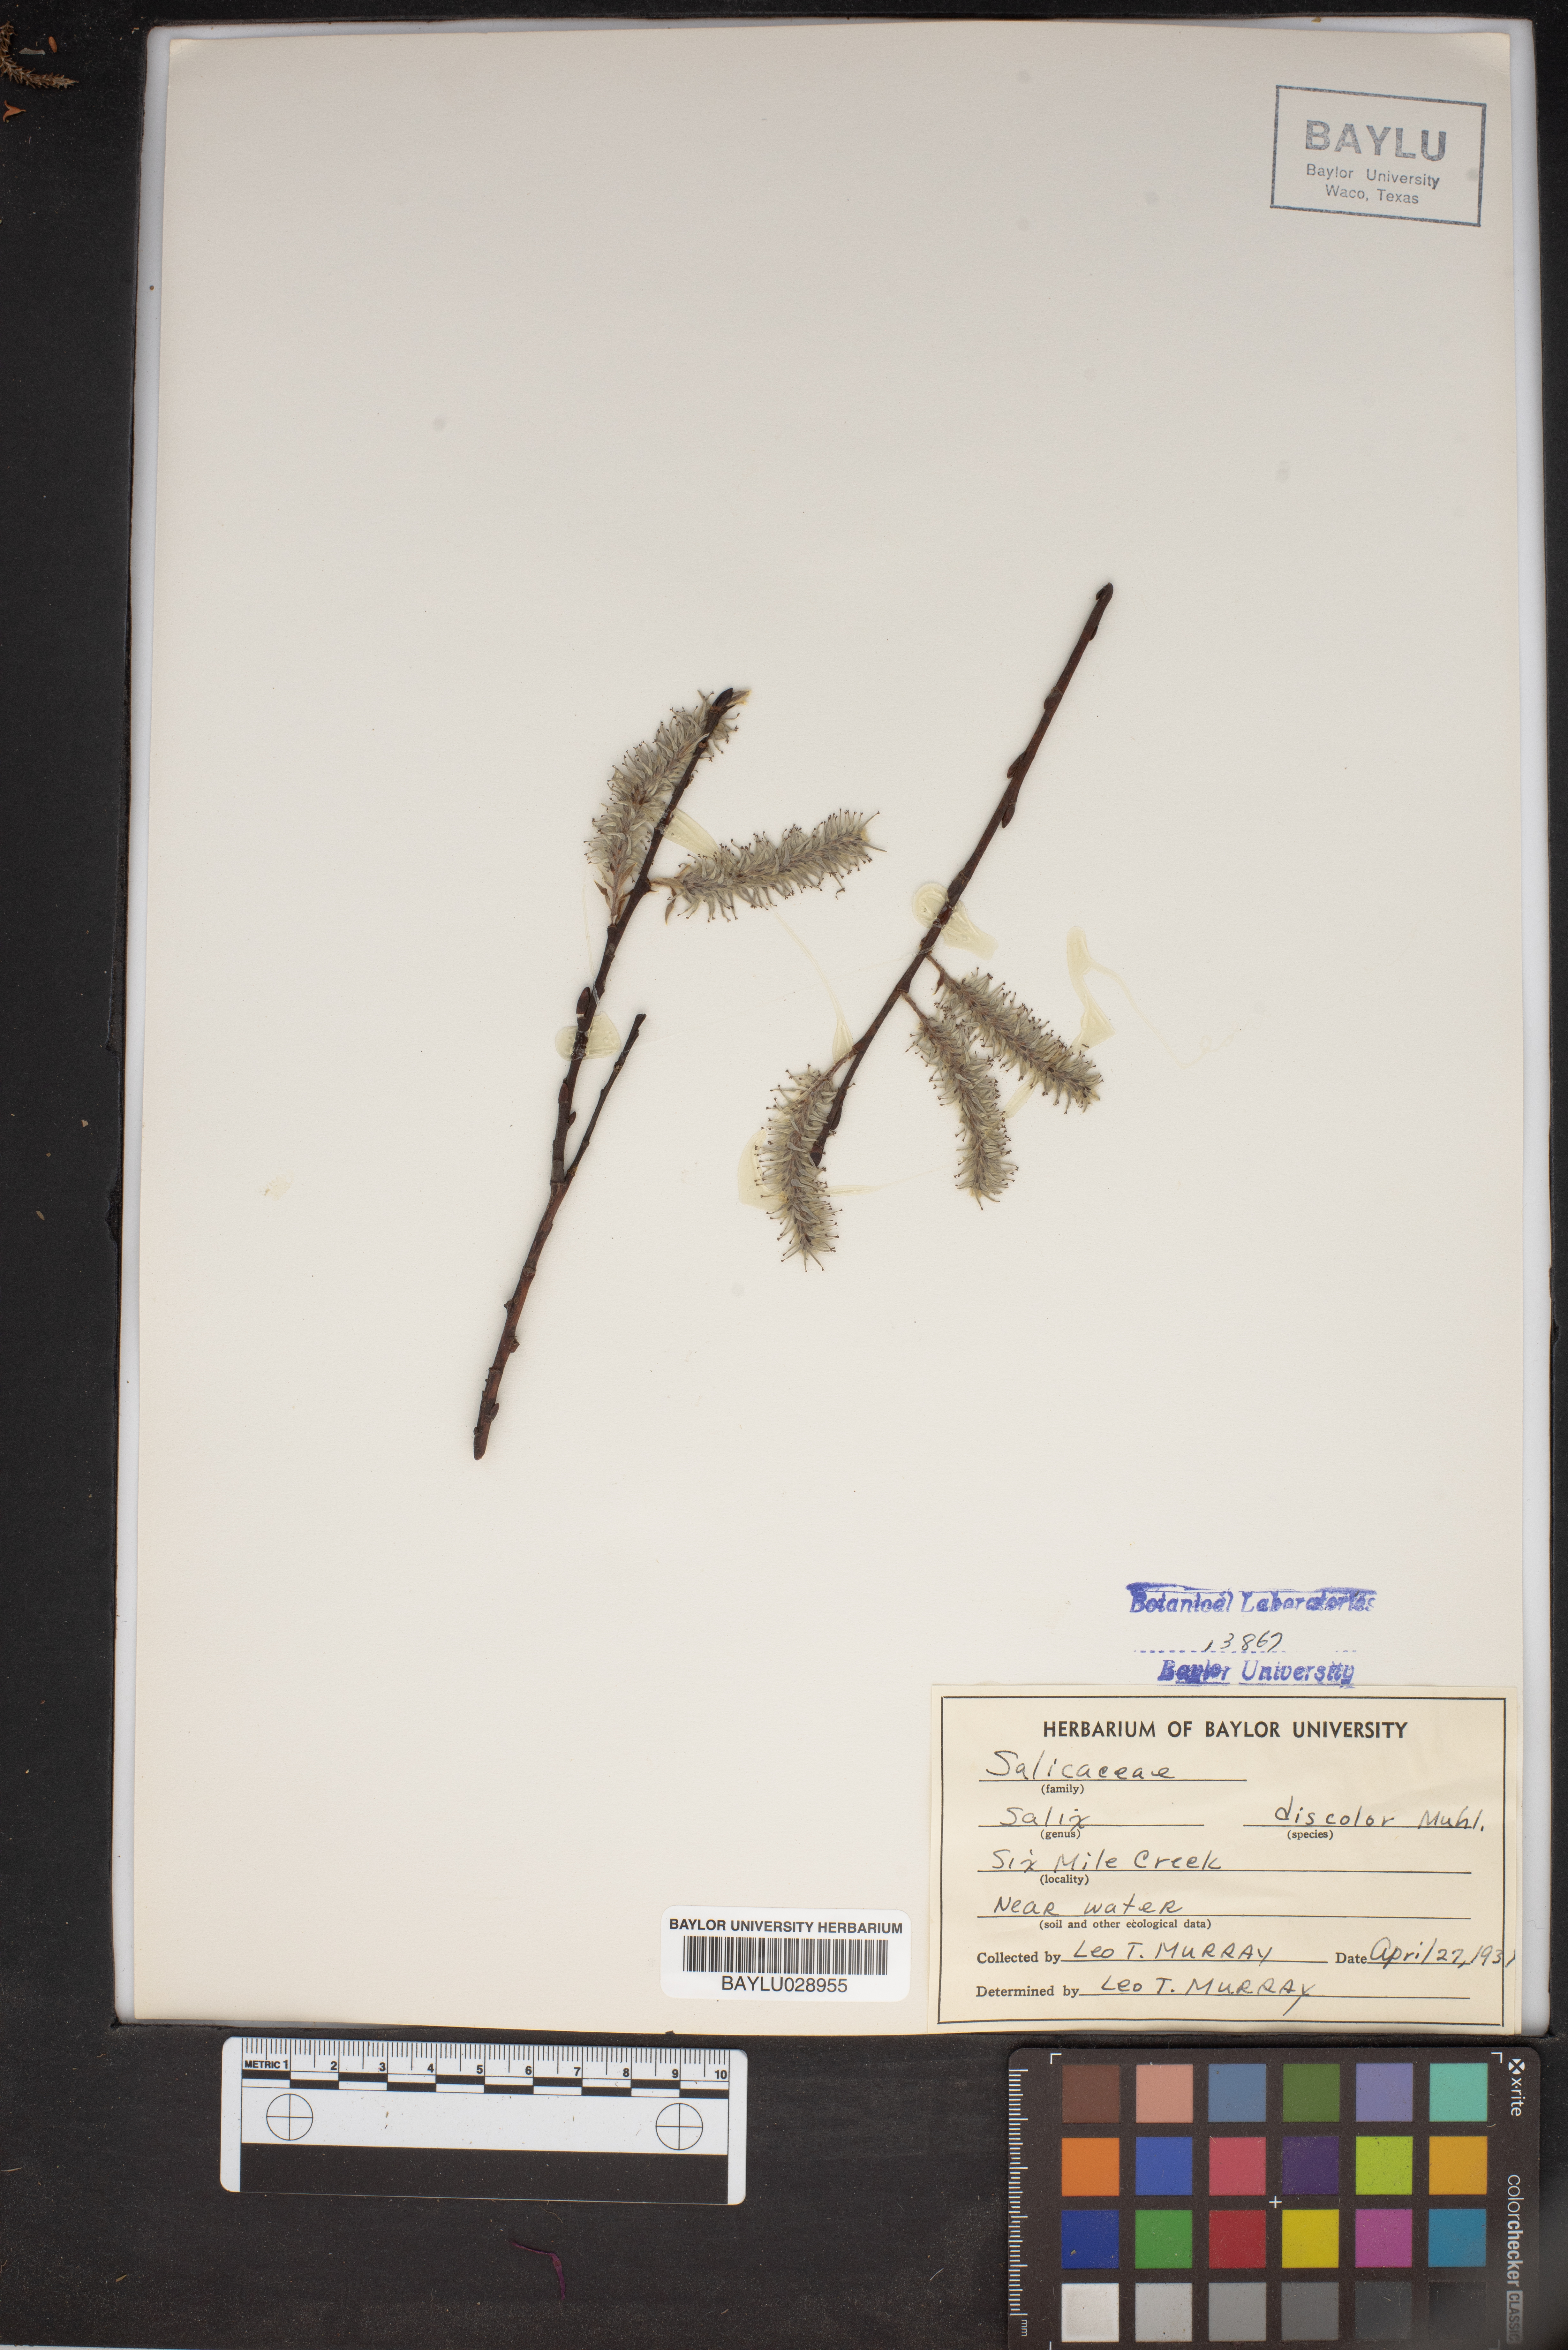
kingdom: Plantae
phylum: Tracheophyta
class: Magnoliopsida
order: Malpighiales
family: Salicaceae
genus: Salix
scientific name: Salix discolor
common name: Glaucous willow
